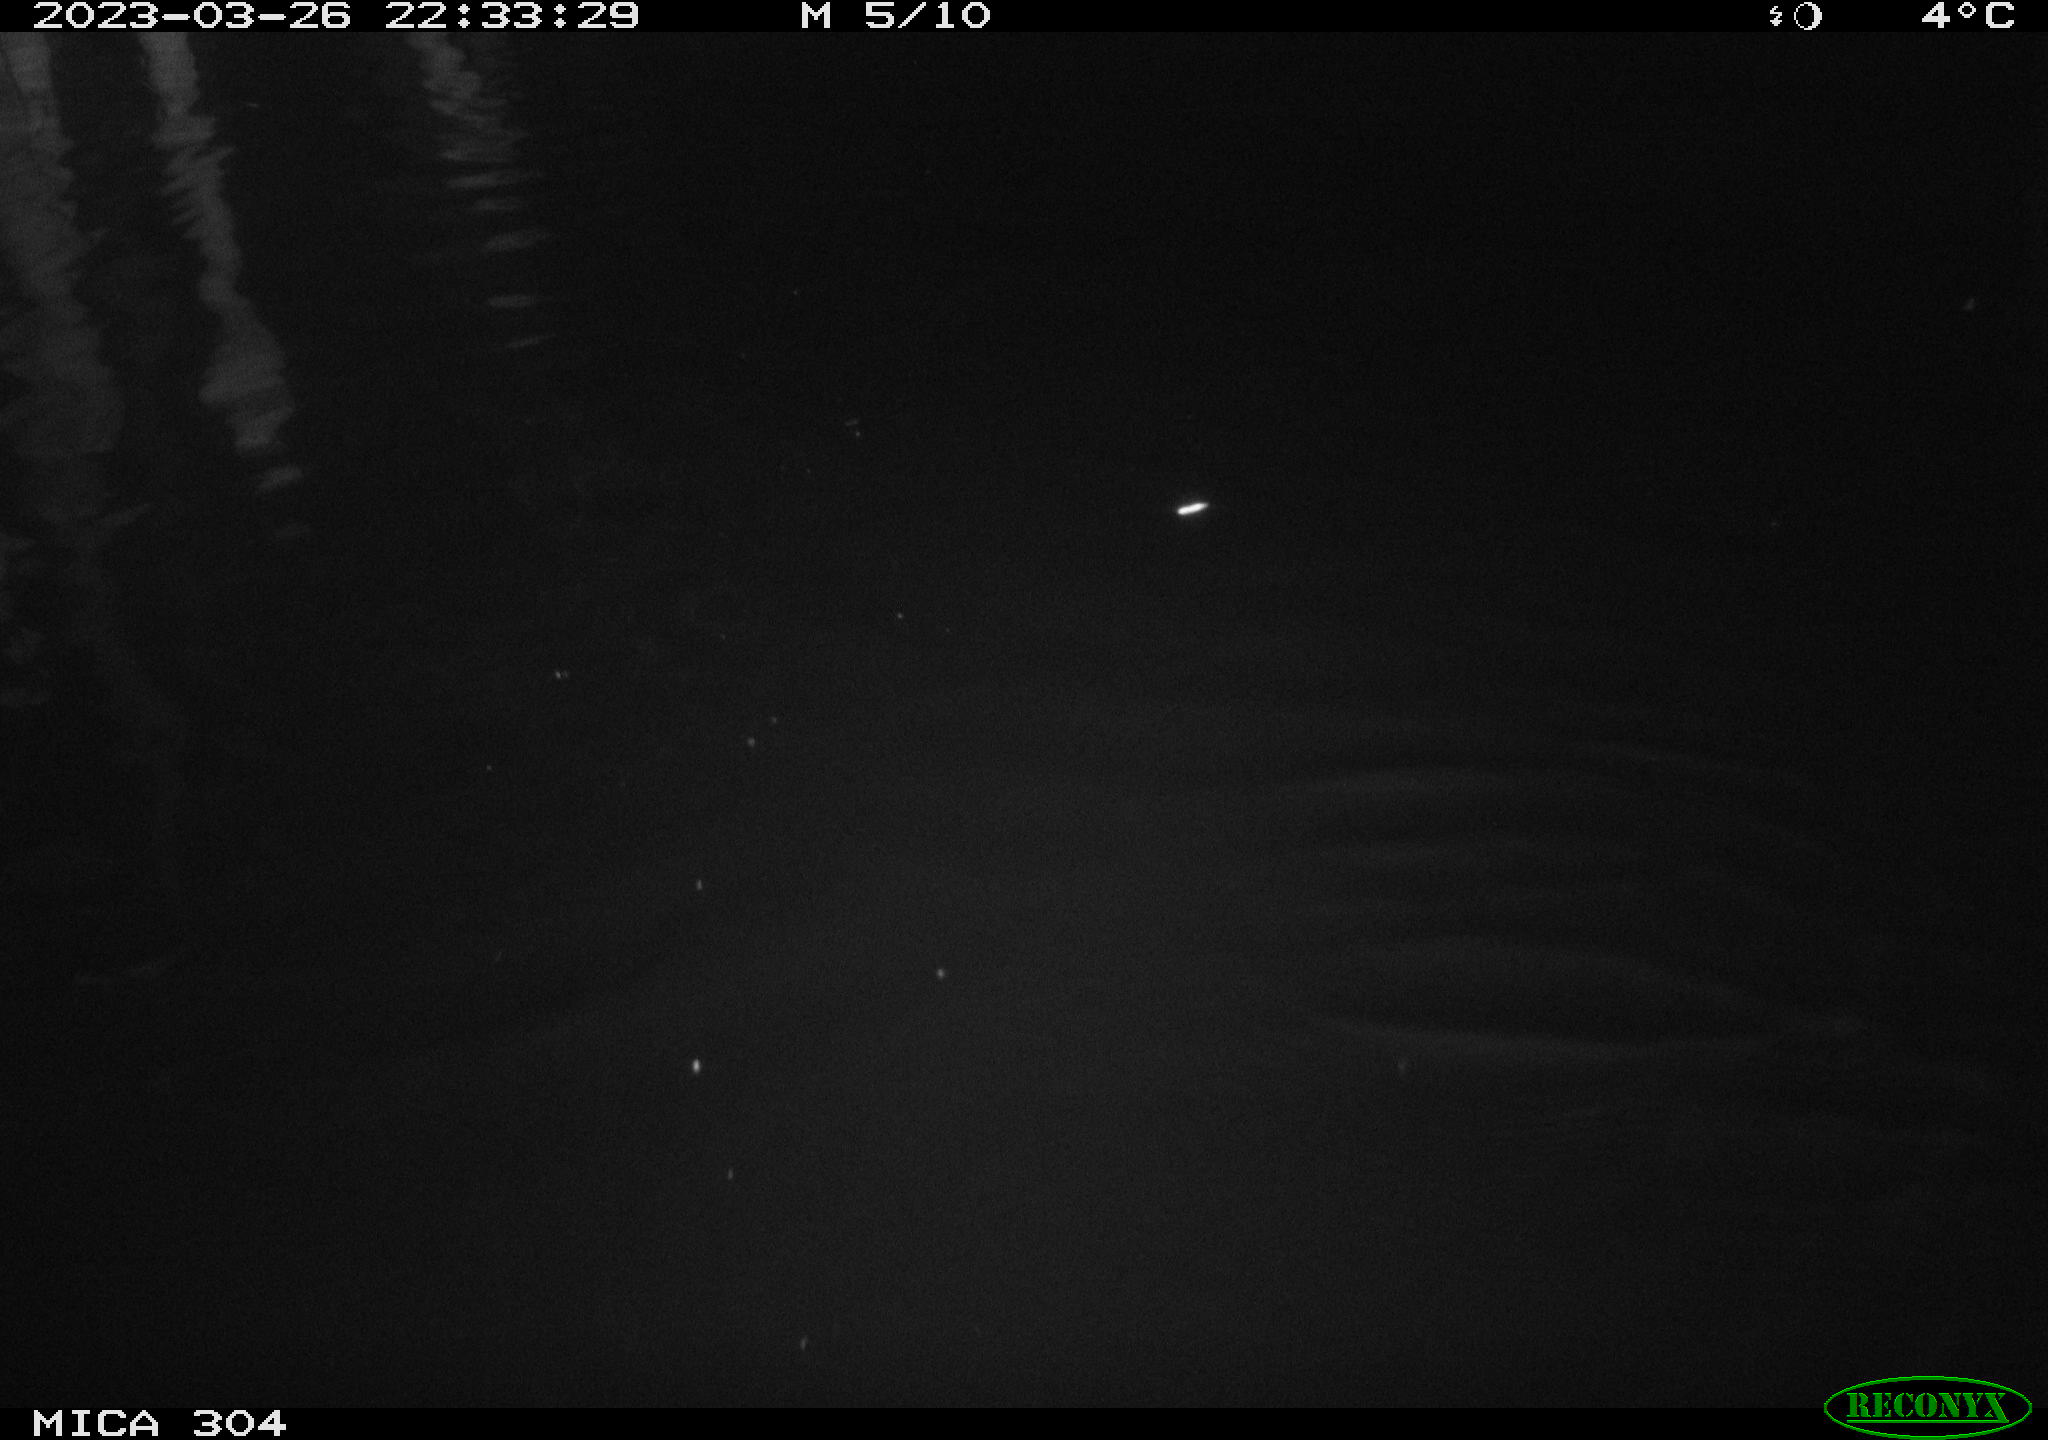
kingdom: Animalia
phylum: Chordata
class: Aves
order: Anseriformes
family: Anatidae
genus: Anas
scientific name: Anas
